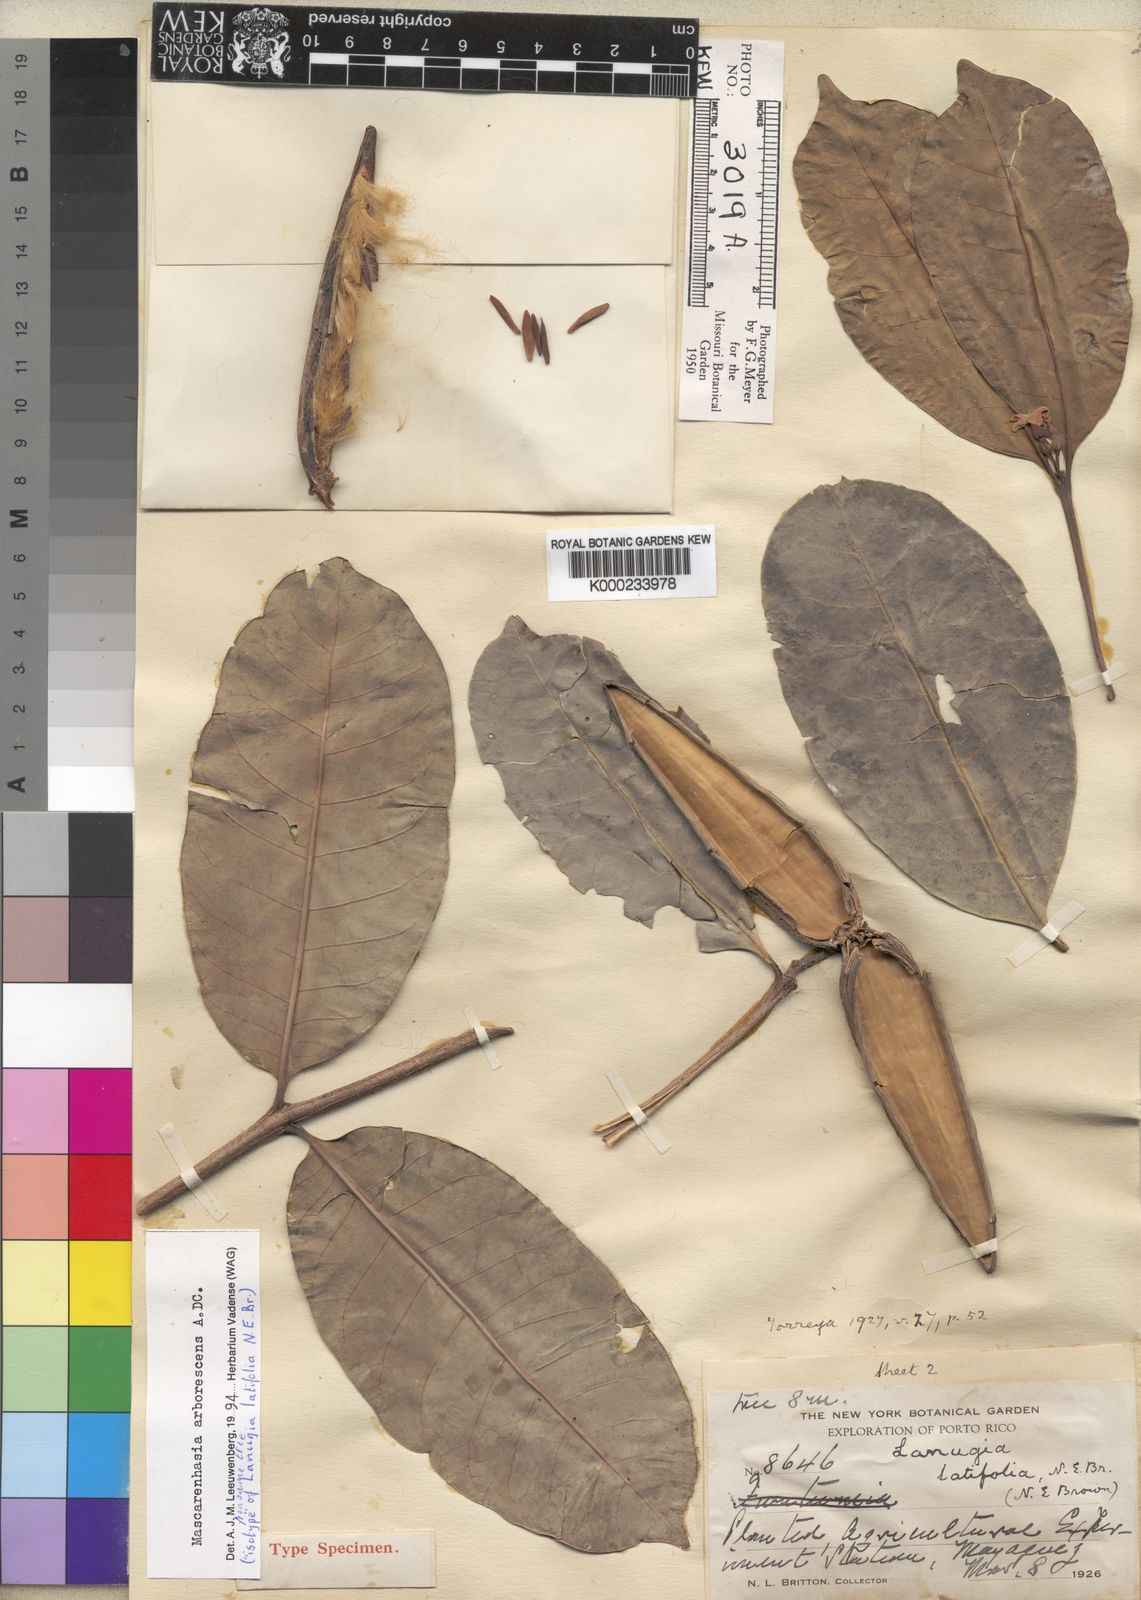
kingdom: Plantae
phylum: Tracheophyta
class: Magnoliopsida
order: Gentianales
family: Apocynaceae
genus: Mascarenhasia
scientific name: Mascarenhasia arborescens
